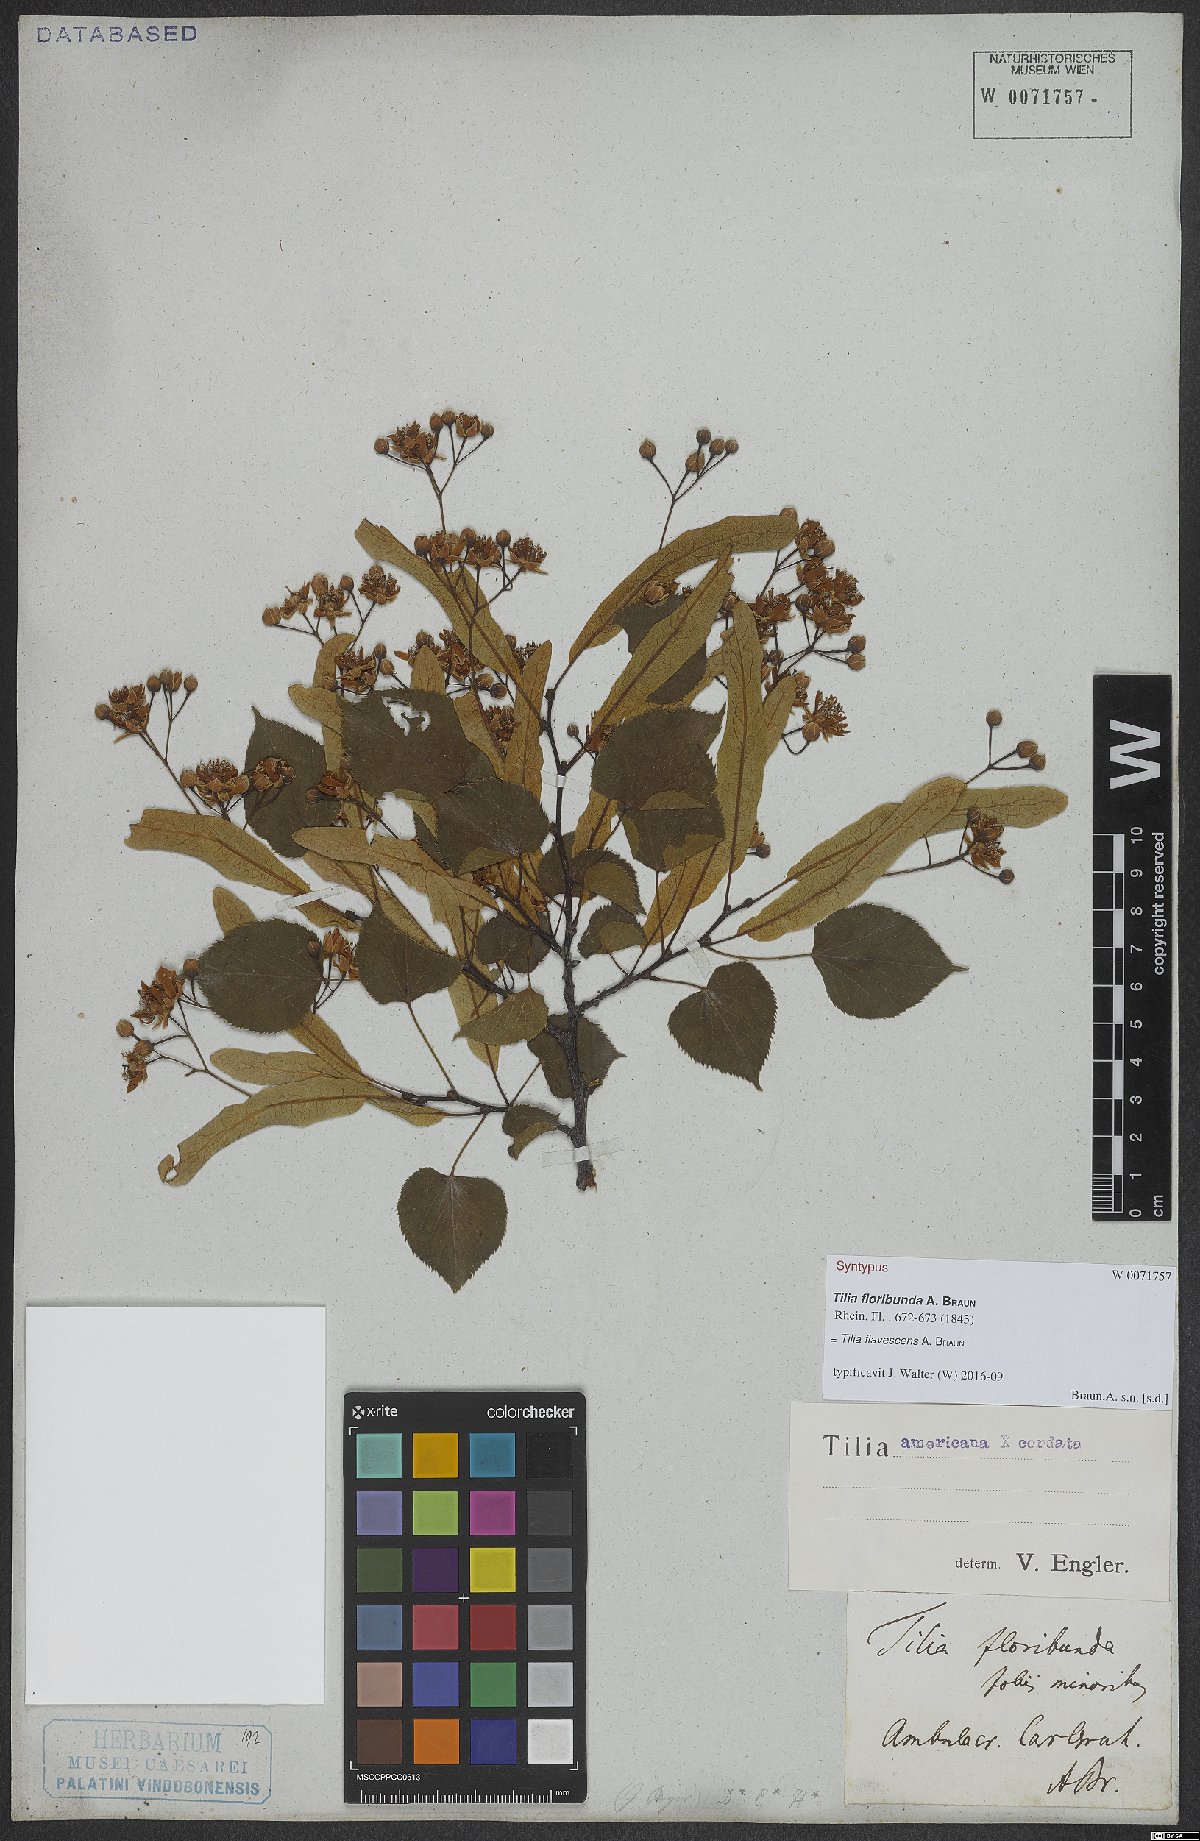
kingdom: Plantae
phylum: Tracheophyta
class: Magnoliopsida
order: Malvales
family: Tiliaceae
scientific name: Tiliaceae
